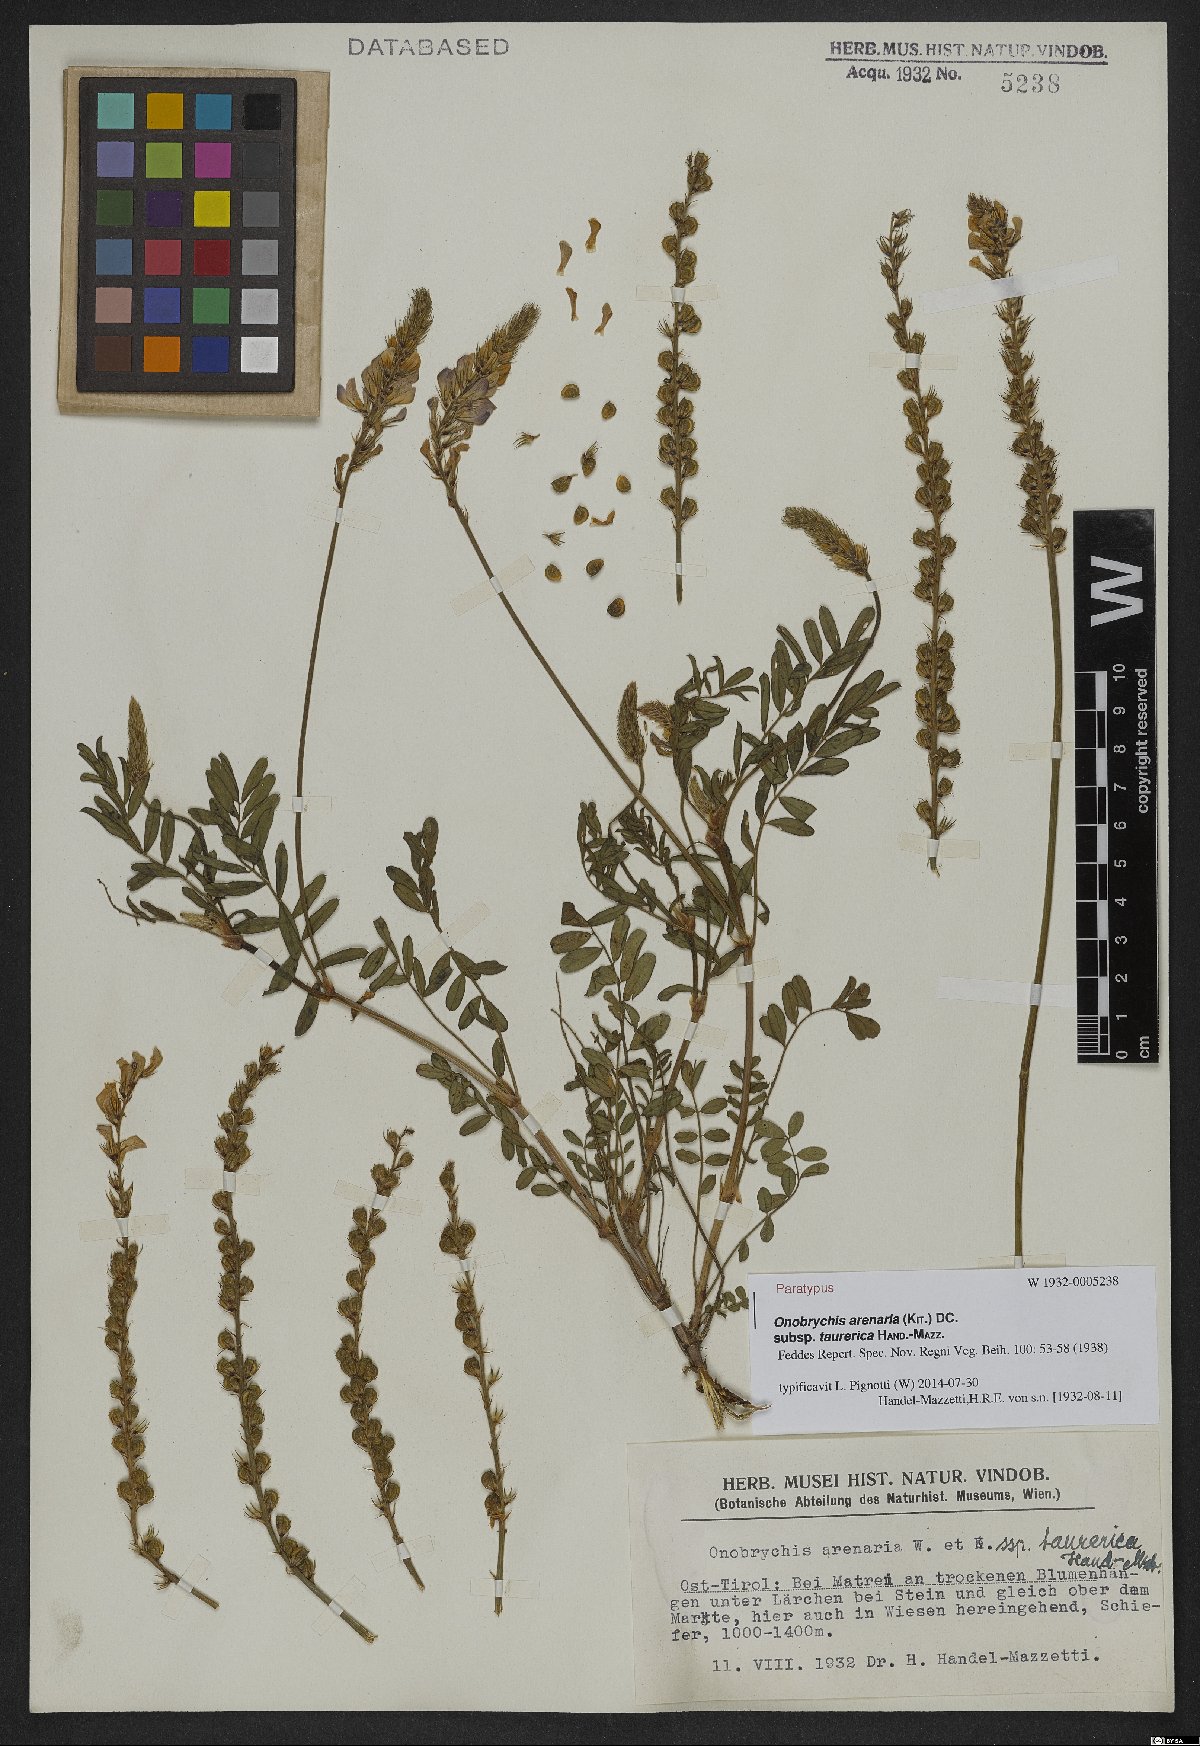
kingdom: Plantae
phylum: Tracheophyta
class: Magnoliopsida
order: Fabales
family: Fabaceae
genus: Onobrychis
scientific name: Onobrychis arenaria
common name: Sand esparcet
